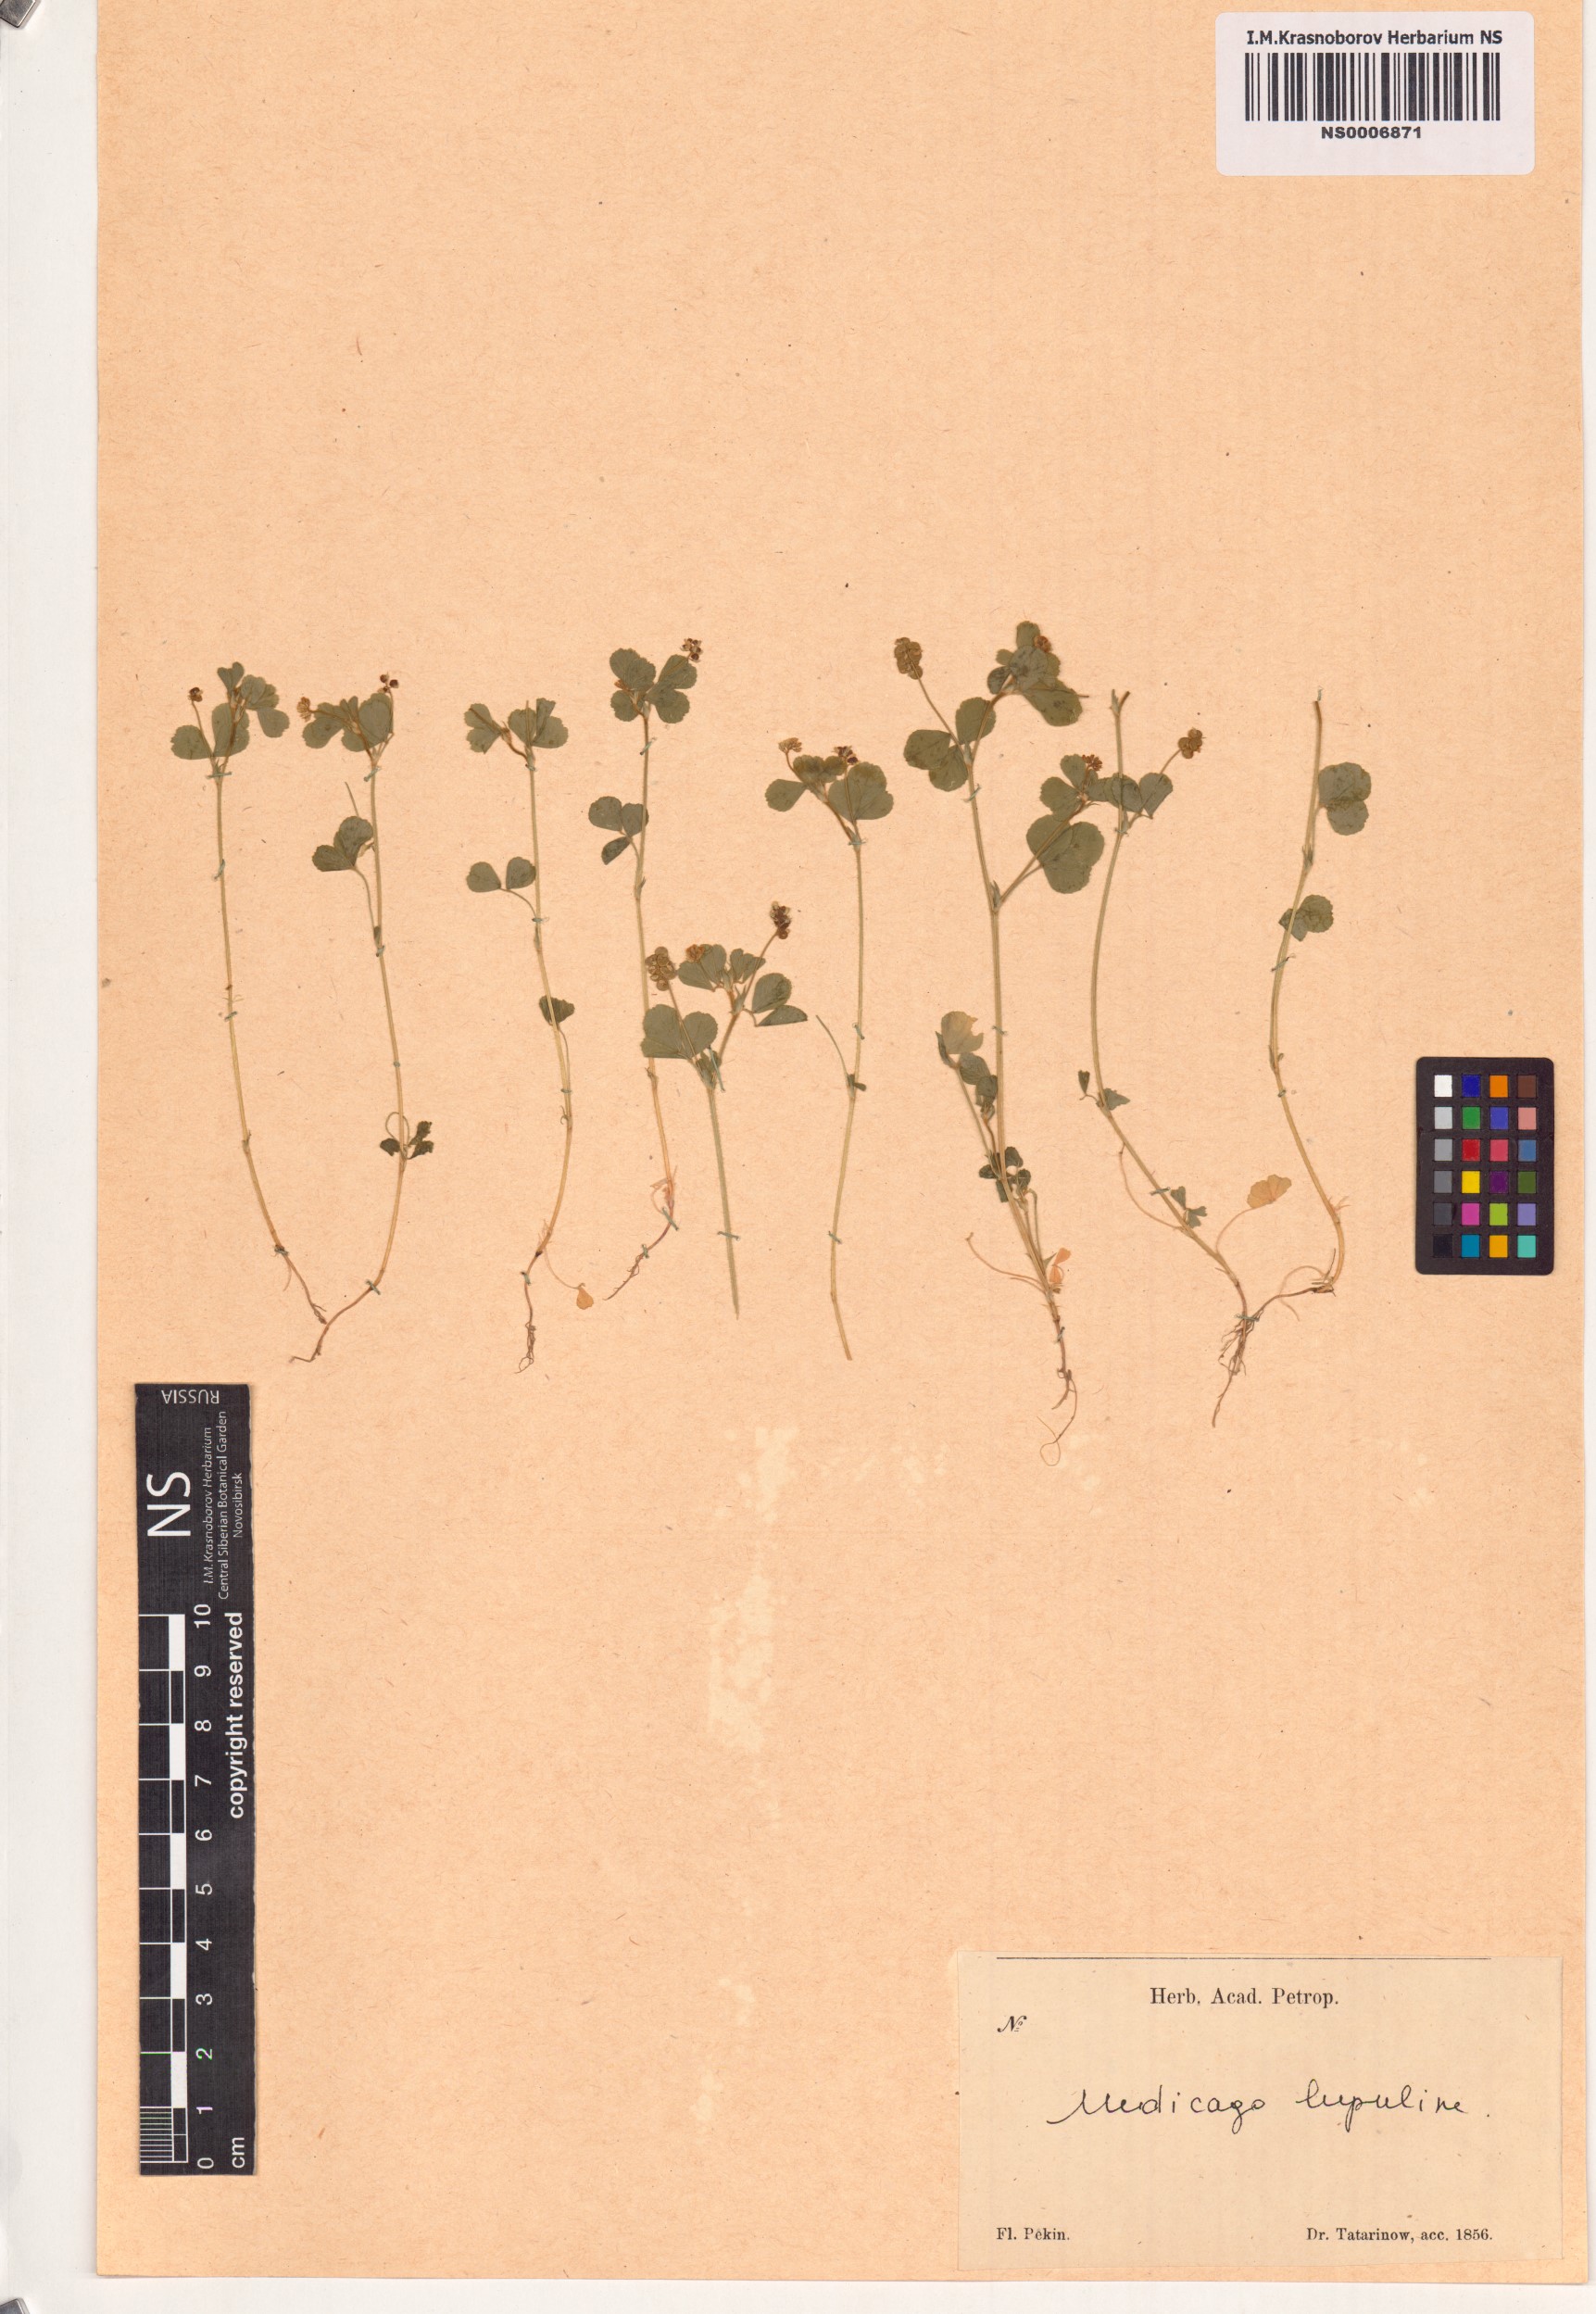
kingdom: Plantae
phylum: Tracheophyta
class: Magnoliopsida
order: Fabales
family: Fabaceae
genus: Medicago
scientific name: Medicago lupulina
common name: Black medick
